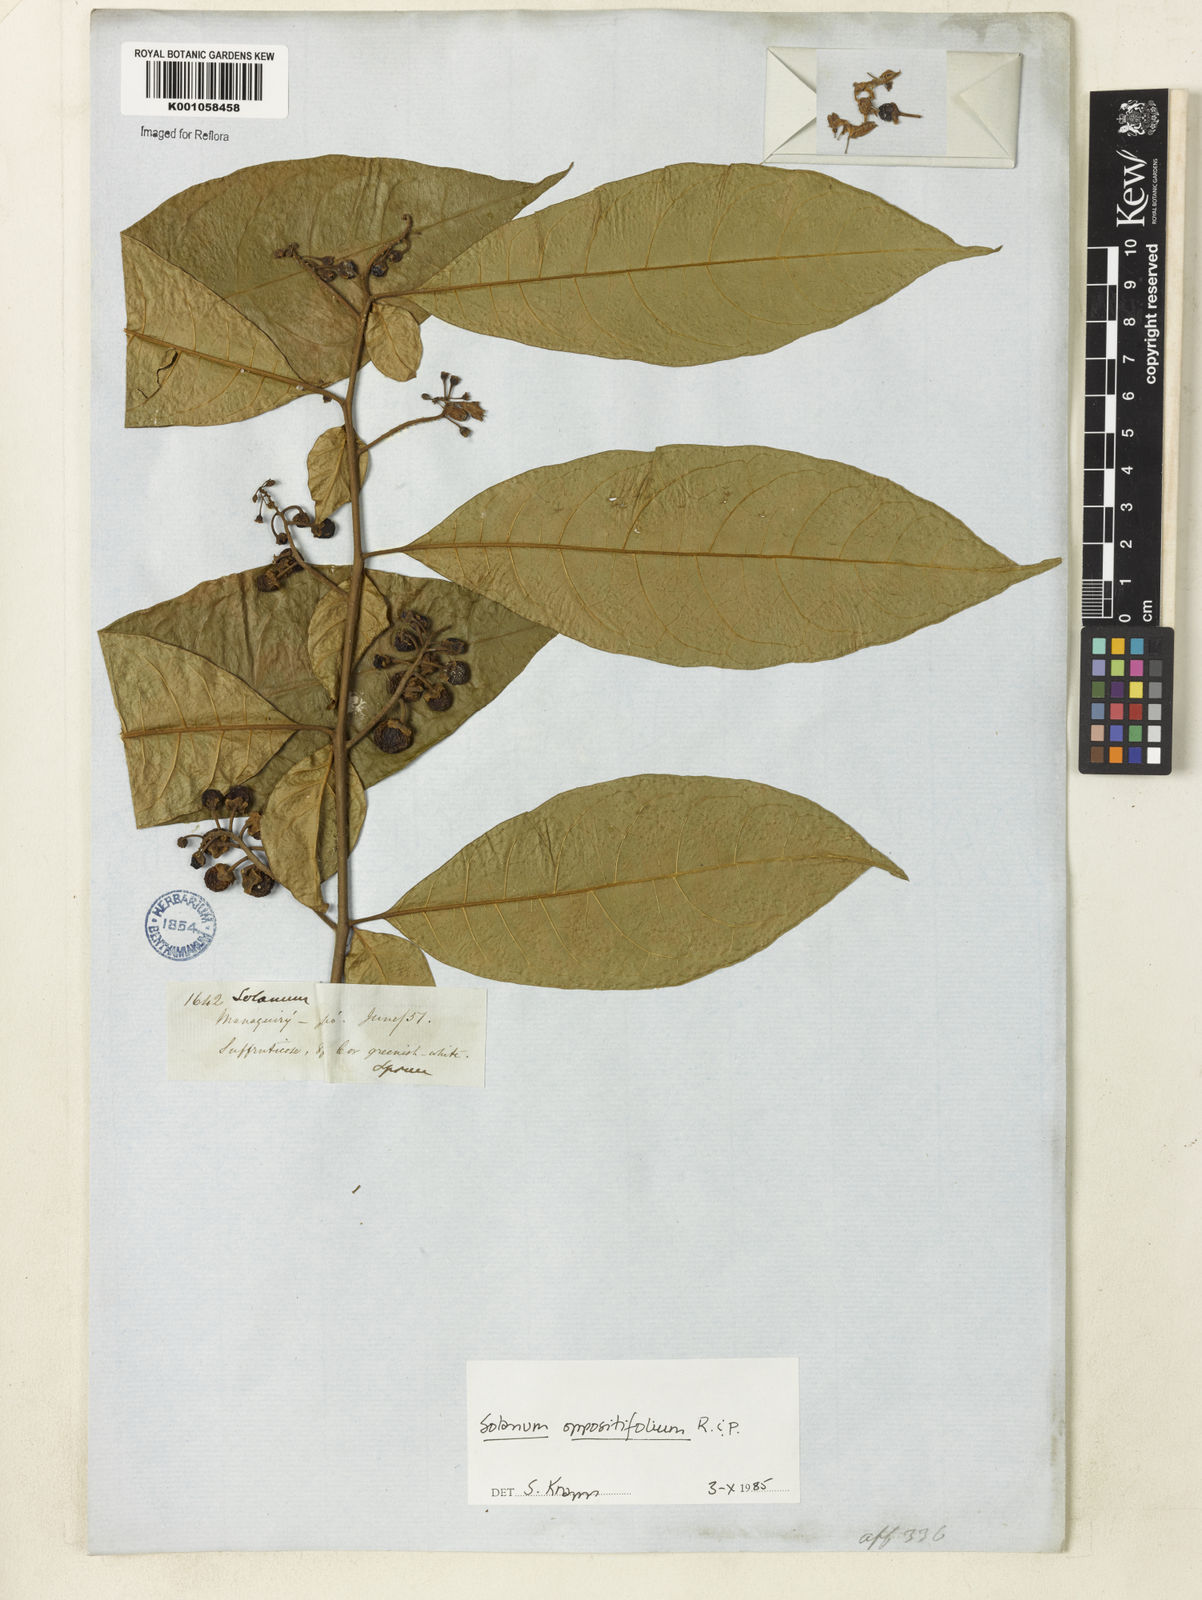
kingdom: Plantae
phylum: Tracheophyta
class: Magnoliopsida
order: Solanales
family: Solanaceae
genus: Solanum
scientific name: Solanum oppositifolium
